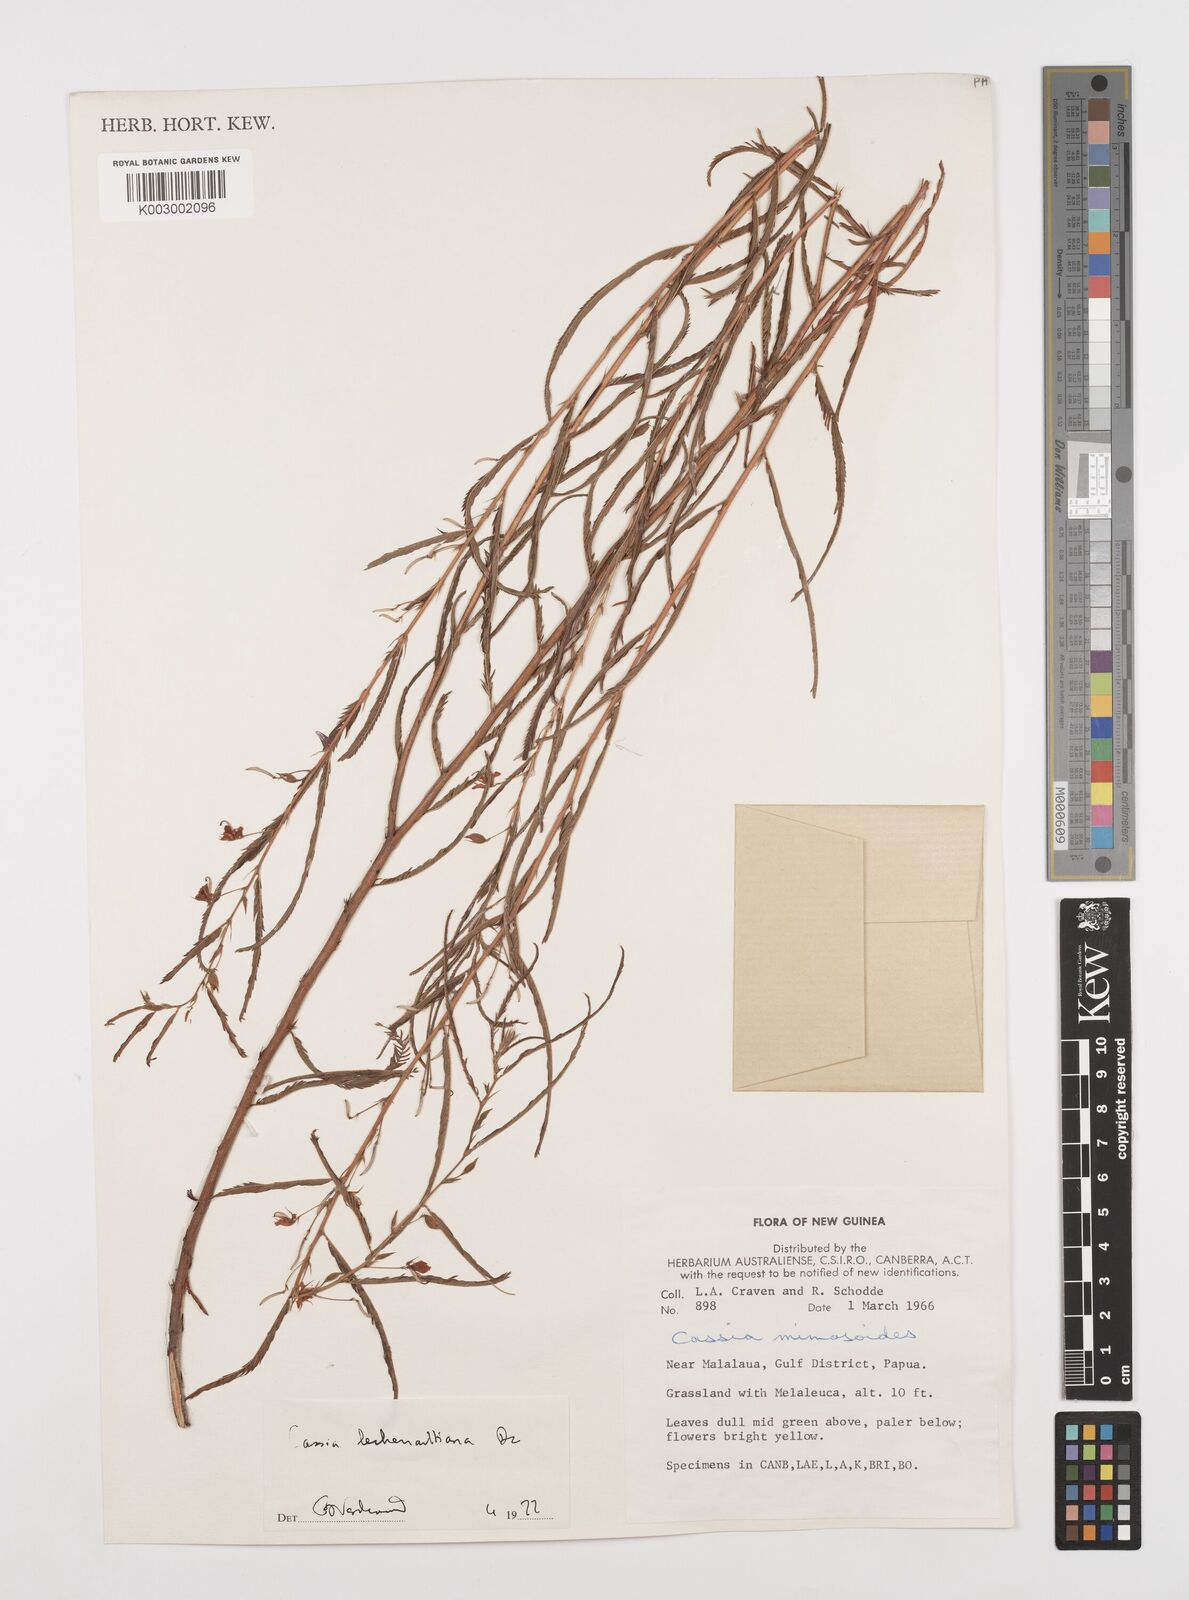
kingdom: Plantae
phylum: Tracheophyta
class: Magnoliopsida
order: Fabales
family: Fabaceae
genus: Chamaecrista
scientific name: Chamaecrista mimosoides
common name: Fish-bone cassia
